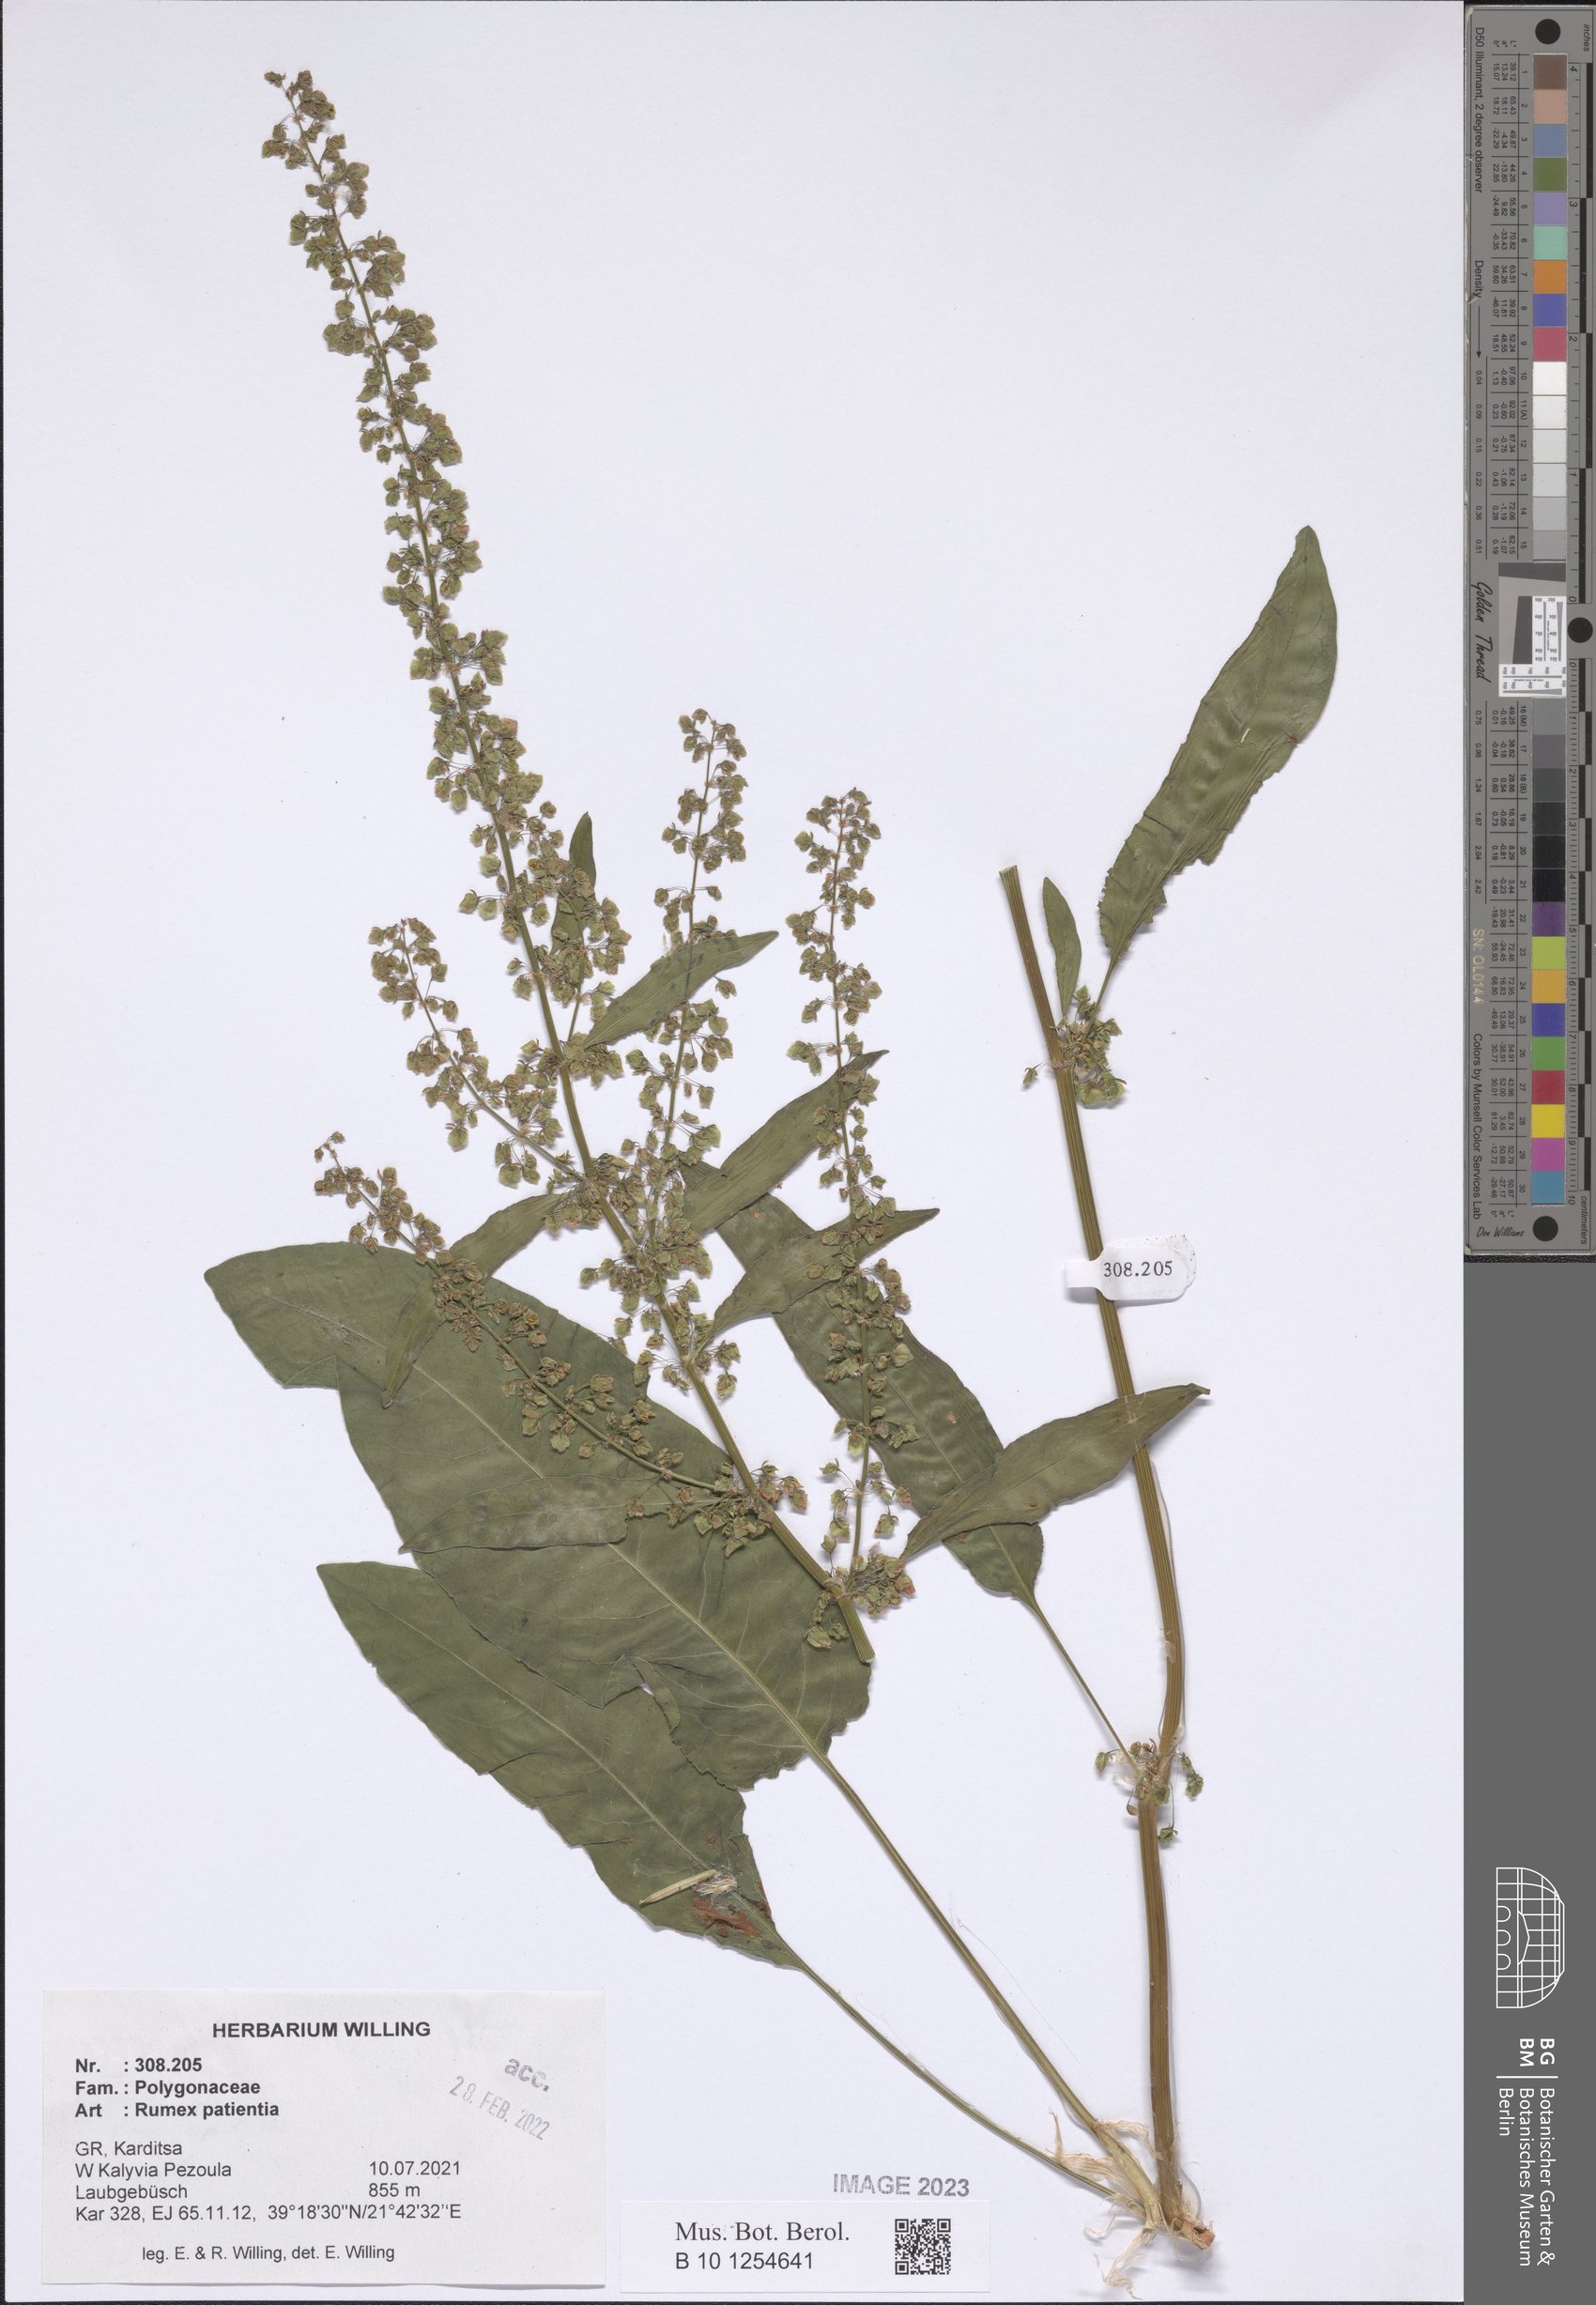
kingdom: Plantae
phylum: Tracheophyta
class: Magnoliopsida
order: Caryophyllales
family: Polygonaceae
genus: Rumex
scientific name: Rumex patientia
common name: Patience dock
